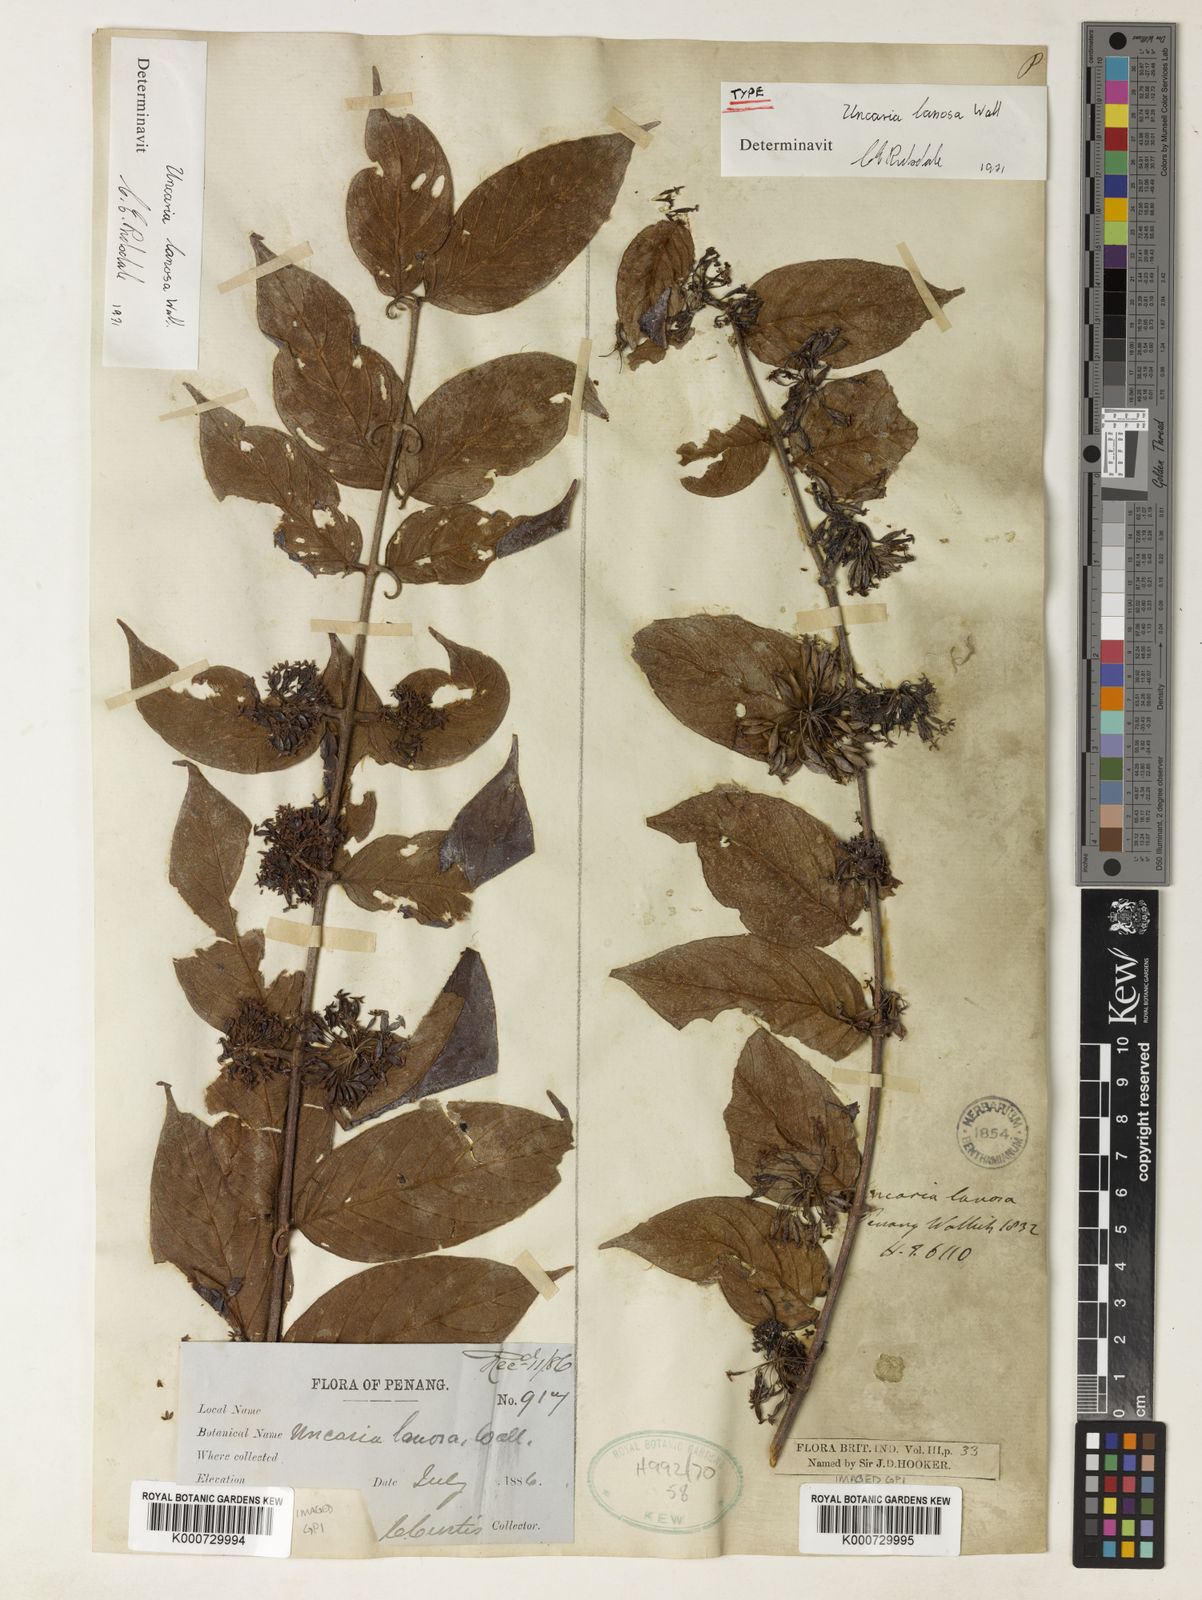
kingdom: Plantae
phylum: Tracheophyta
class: Magnoliopsida
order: Gentianales
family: Rubiaceae
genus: Uncaria
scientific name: Uncaria lanosa
